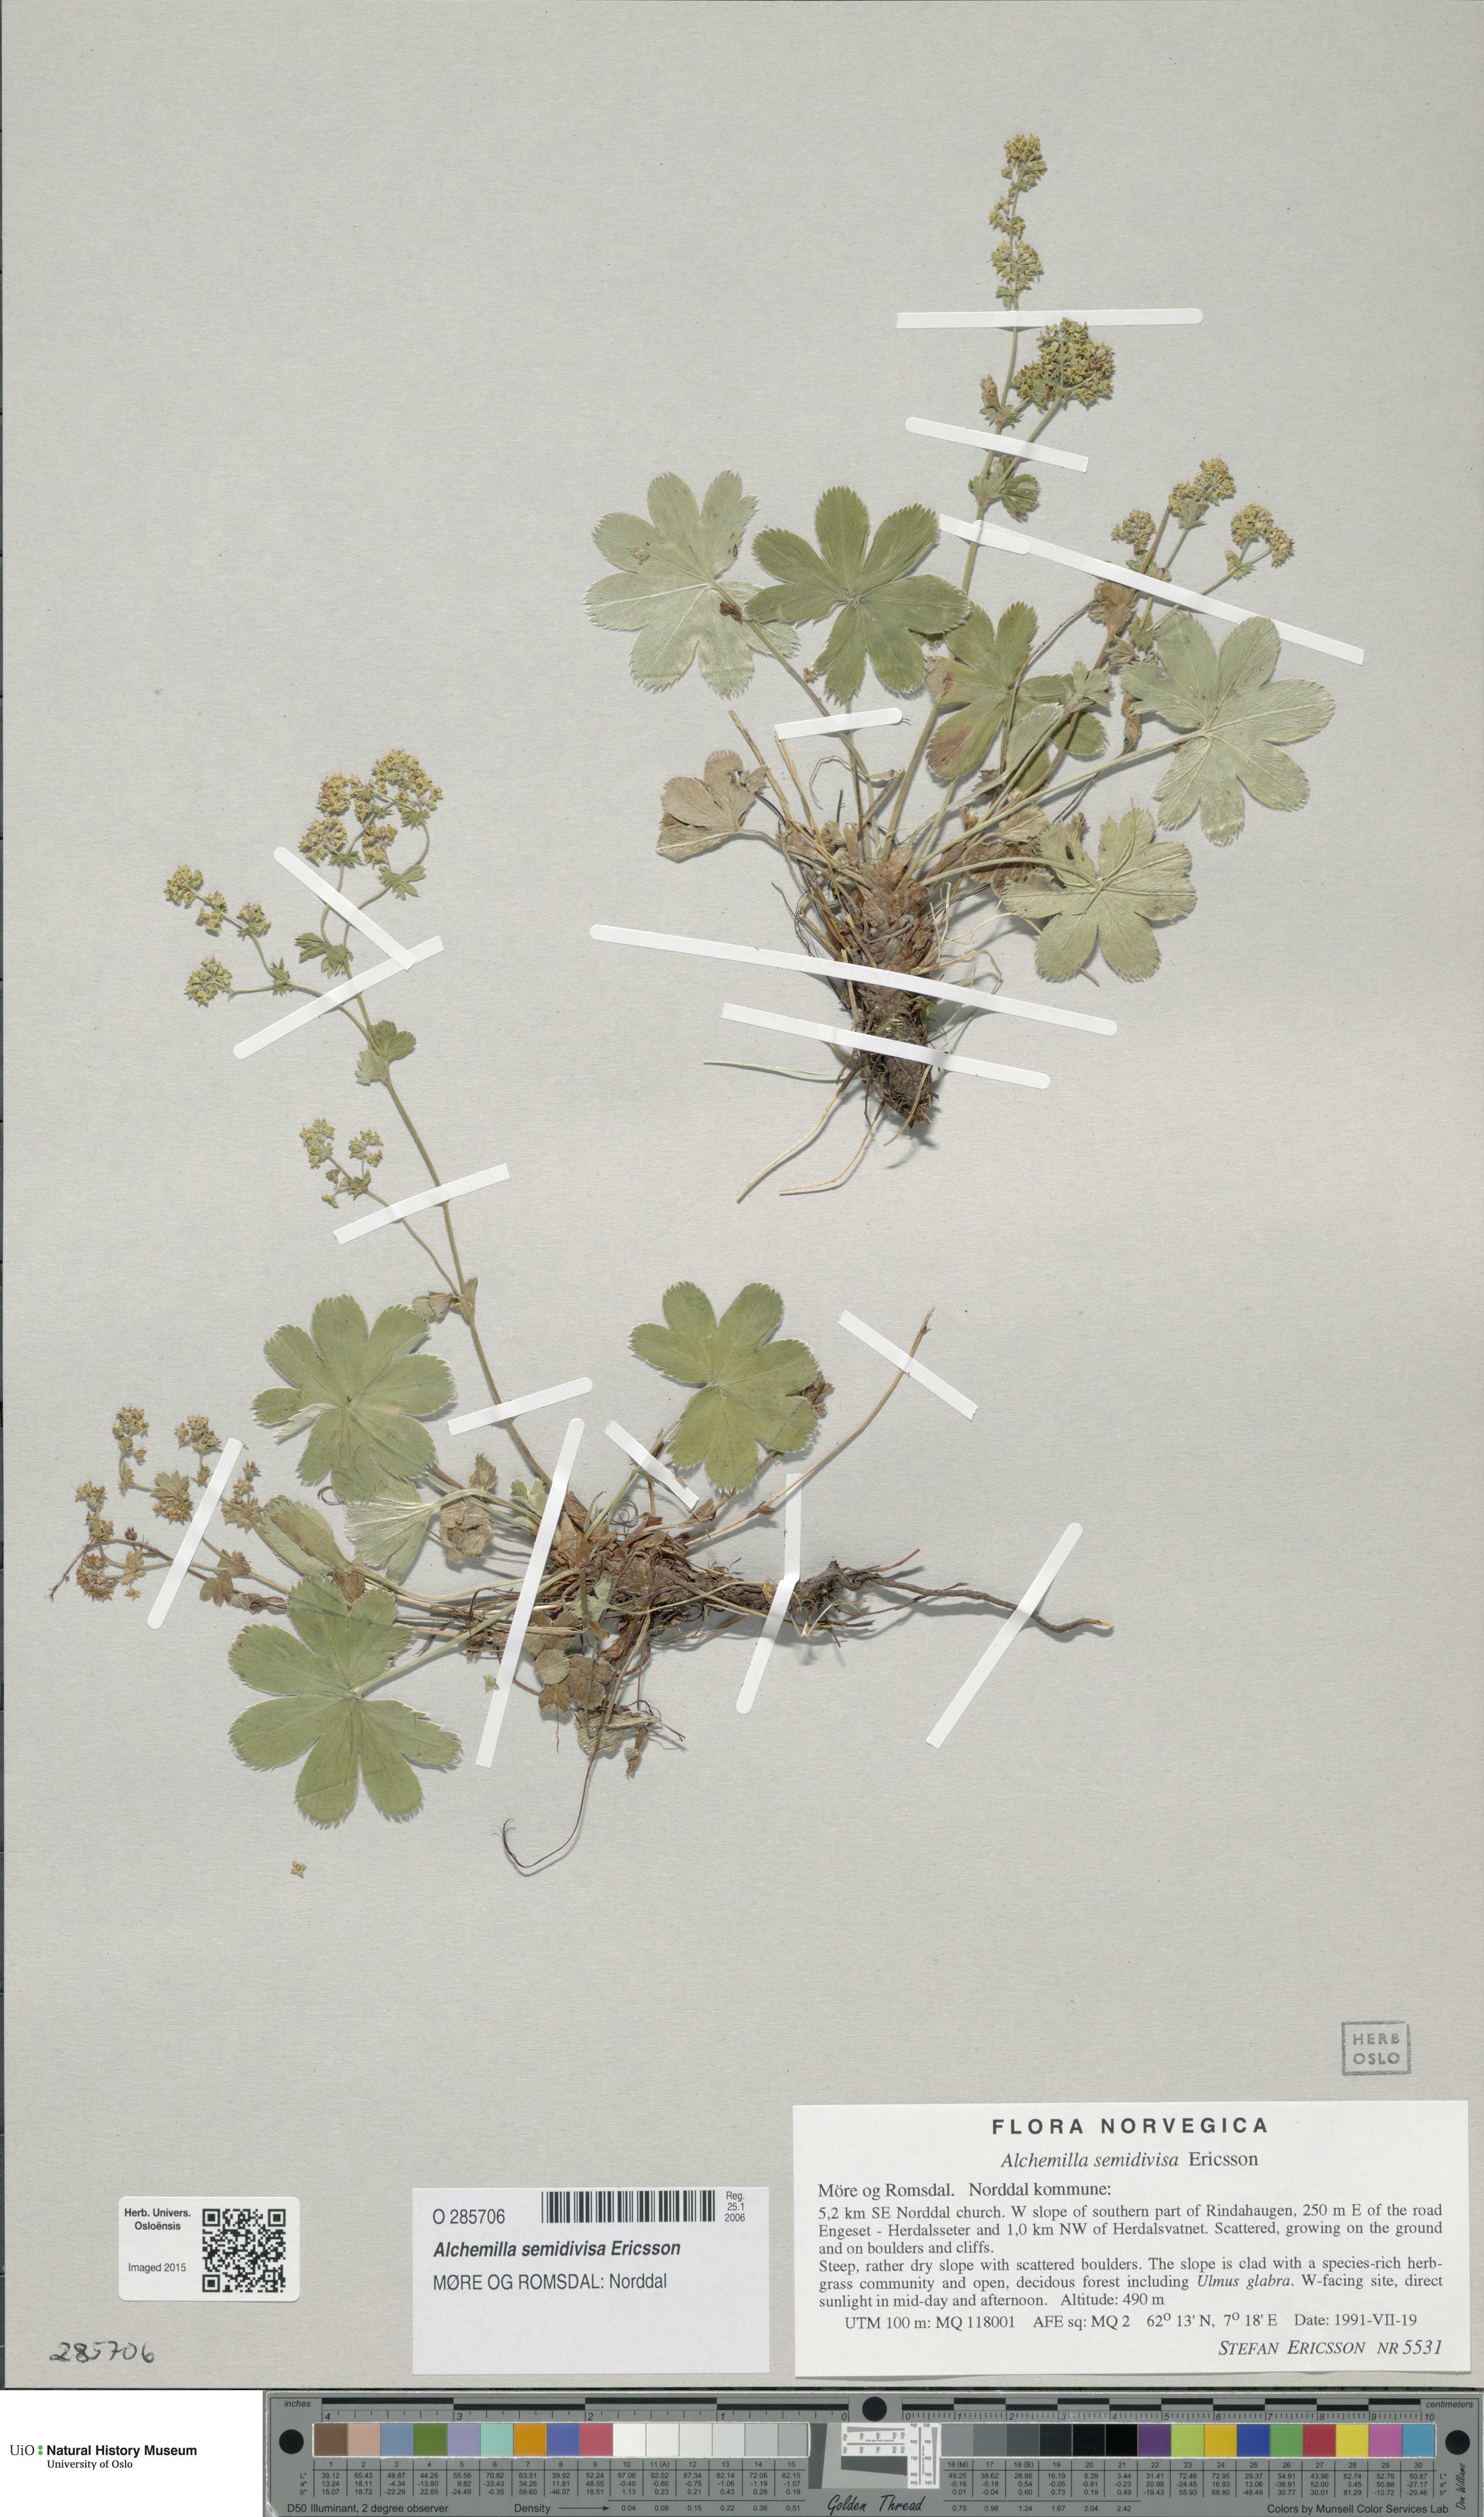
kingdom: Plantae
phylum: Tracheophyta
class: Magnoliopsida
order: Rosales
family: Rosaceae
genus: Alchemilla
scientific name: Alchemilla semidivisa
